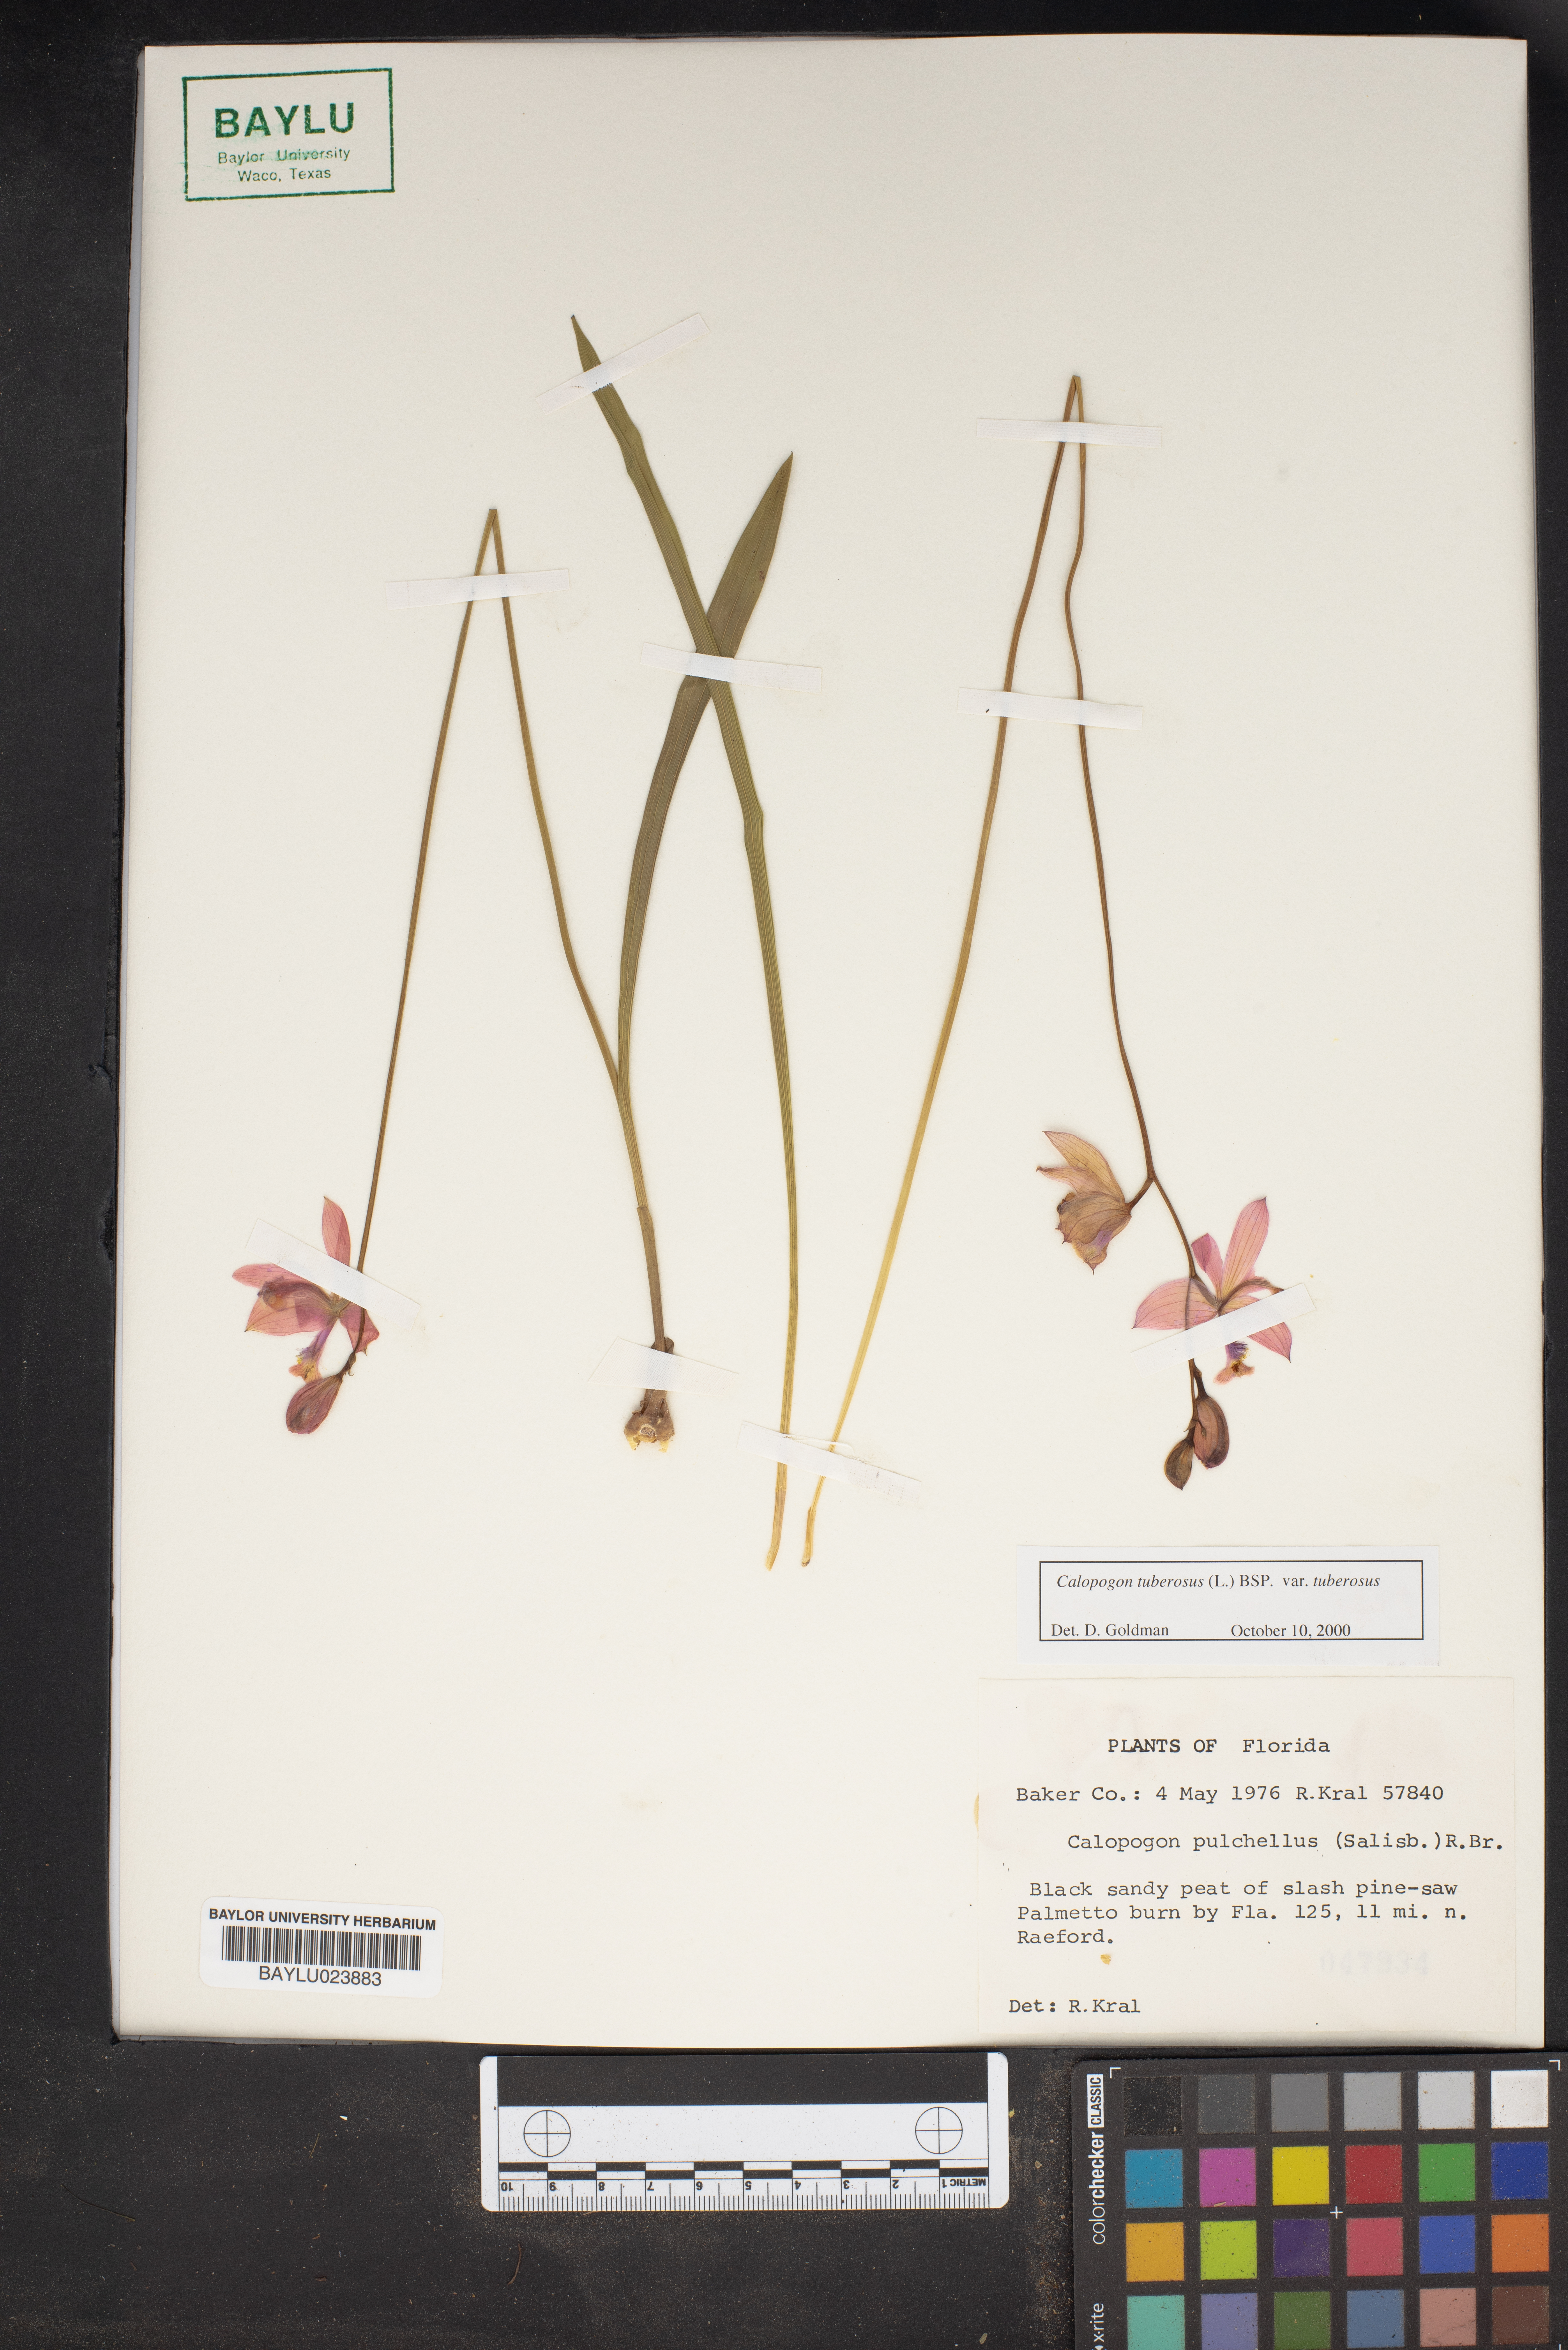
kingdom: Plantae
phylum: Tracheophyta
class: Liliopsida
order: Asparagales
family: Orchidaceae
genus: Calopogon
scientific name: Calopogon tuberosus
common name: Grass-pink
